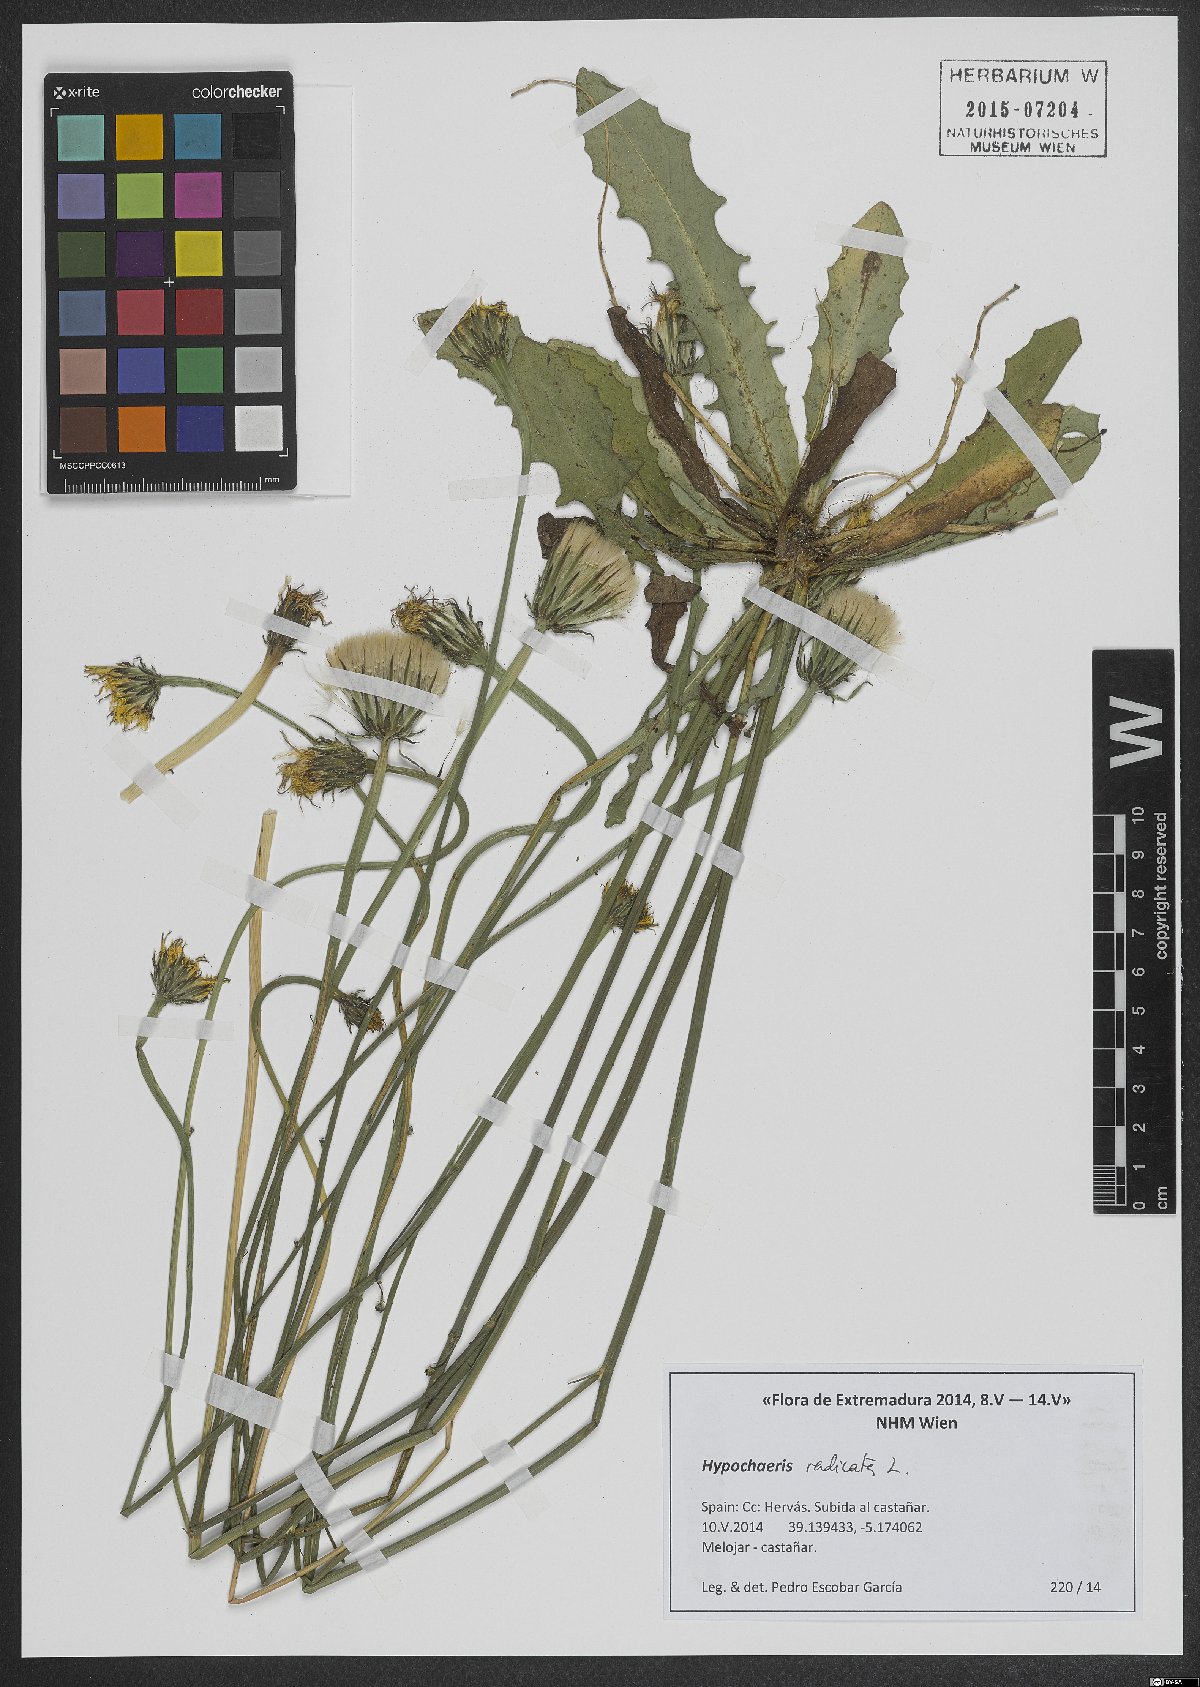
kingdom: Plantae
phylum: Tracheophyta
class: Magnoliopsida
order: Asterales
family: Asteraceae
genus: Hypochaeris
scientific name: Hypochaeris radicata
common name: Flatweed
